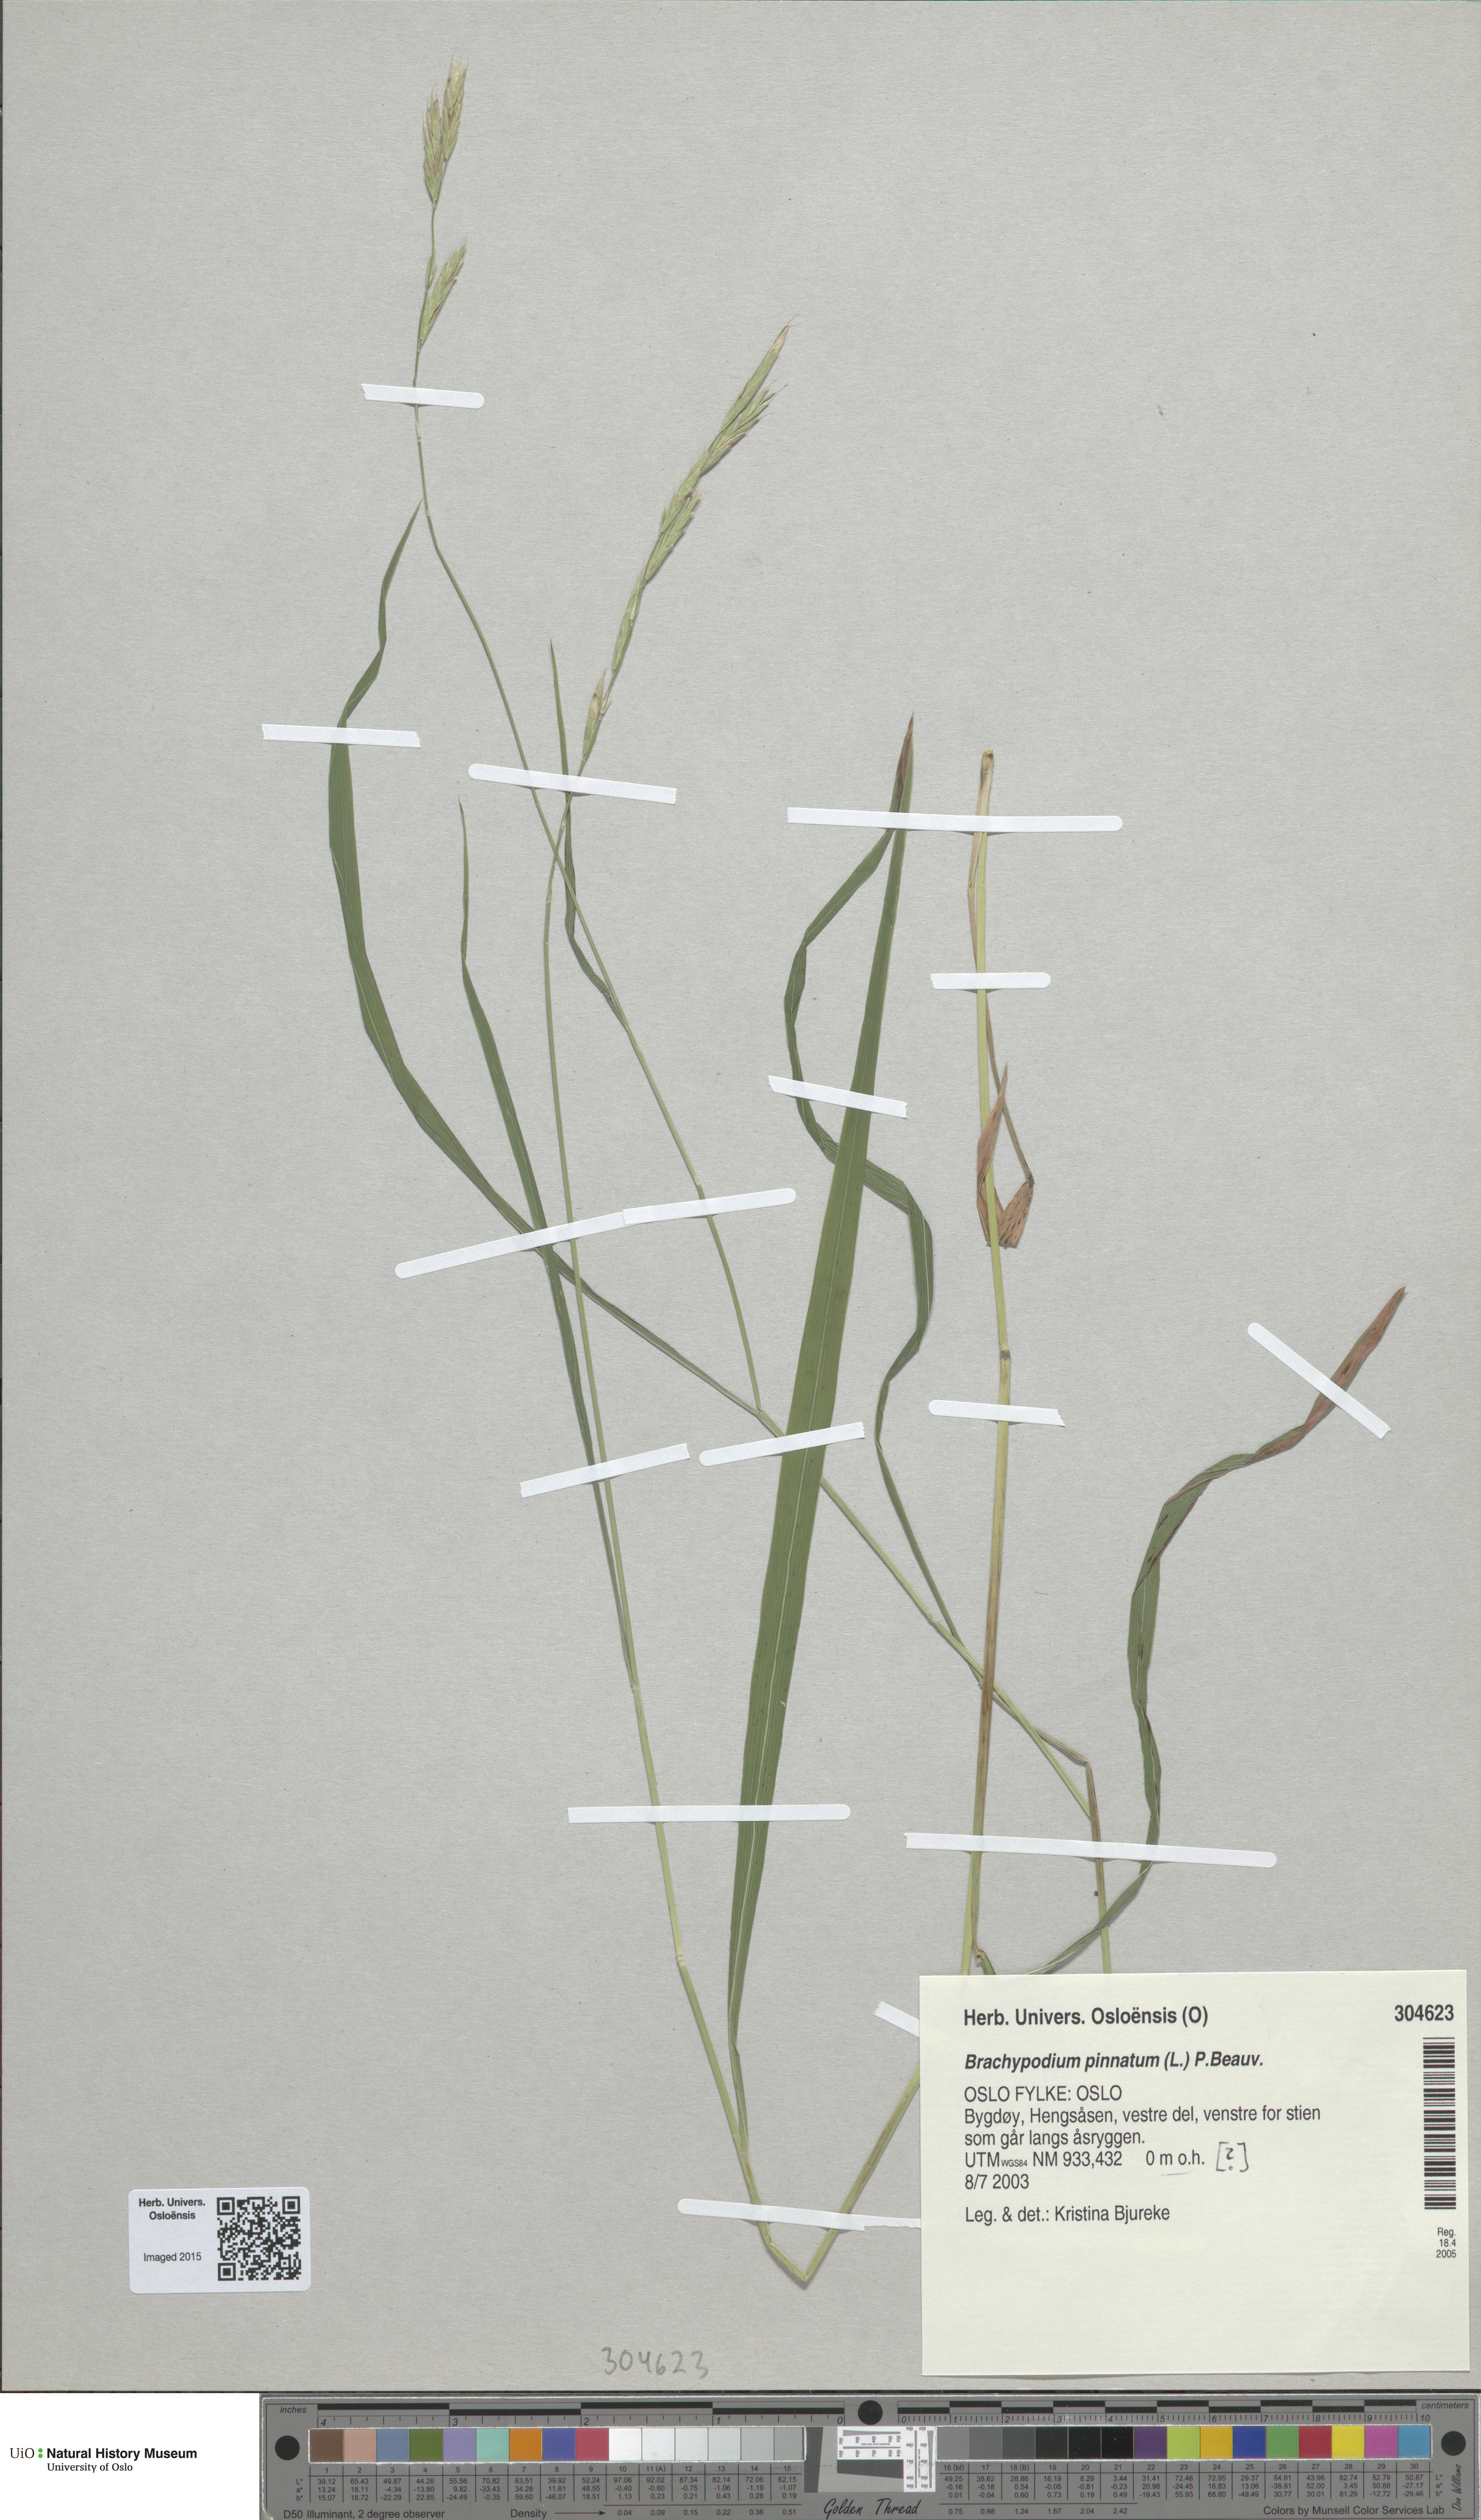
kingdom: Plantae
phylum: Tracheophyta
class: Liliopsida
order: Poales
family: Poaceae
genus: Brachypodium
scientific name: Brachypodium pinnatum
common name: Tor grass
